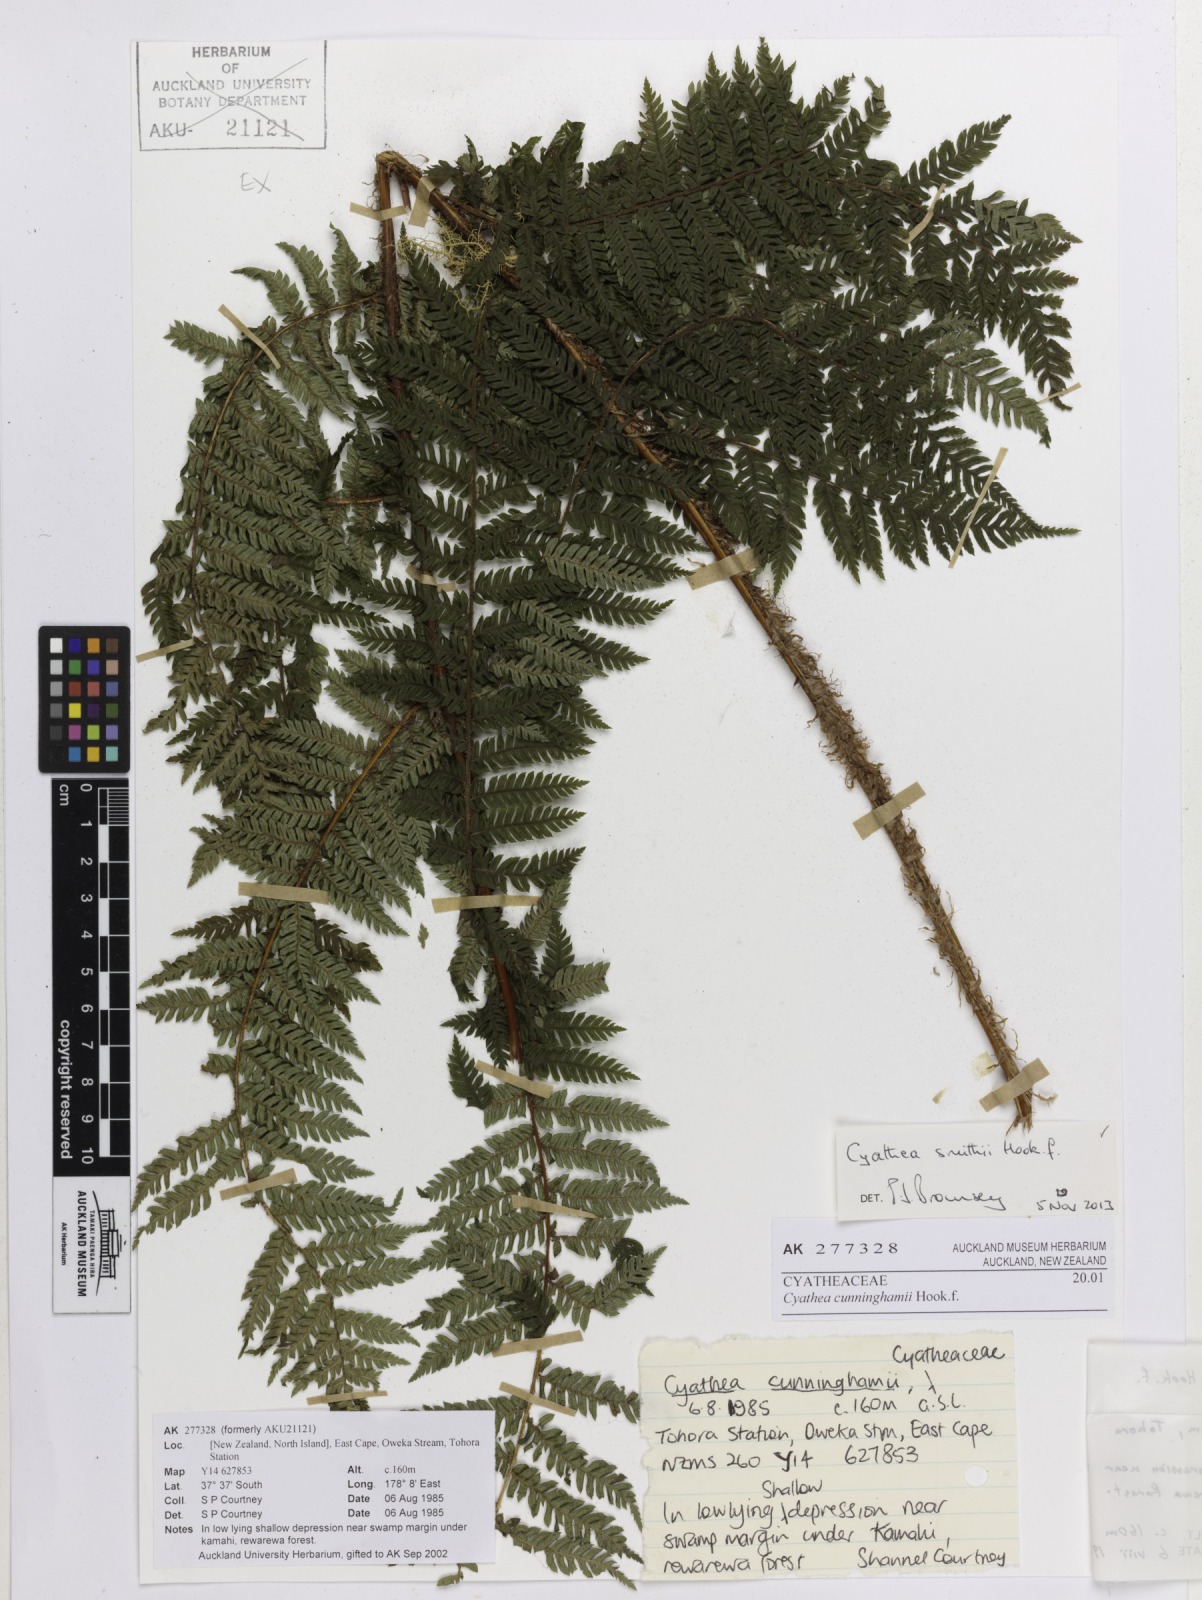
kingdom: Plantae
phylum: Tracheophyta
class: Polypodiopsida
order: Cyatheales
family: Cyatheaceae
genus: Alsophila
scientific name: Alsophila smithii
